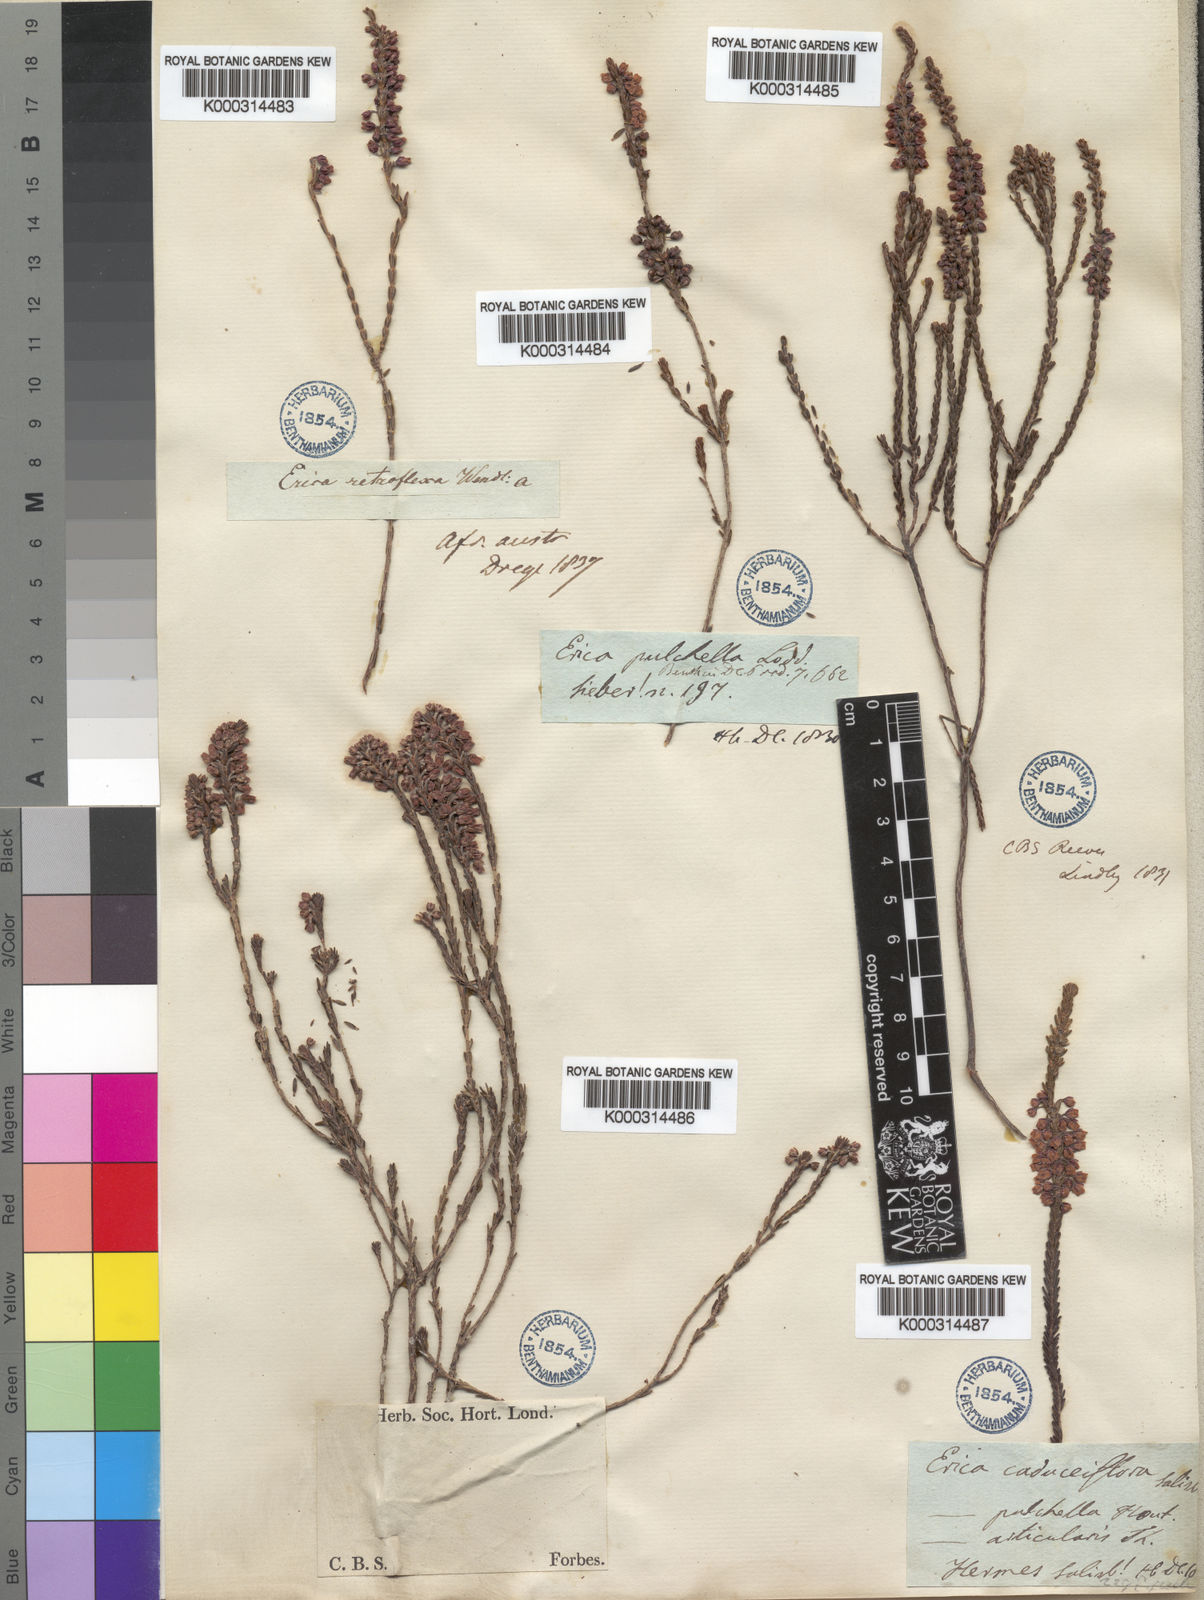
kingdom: Plantae
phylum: Tracheophyta
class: Magnoliopsida
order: Ericales
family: Ericaceae
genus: Erica
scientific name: Erica pulchella
